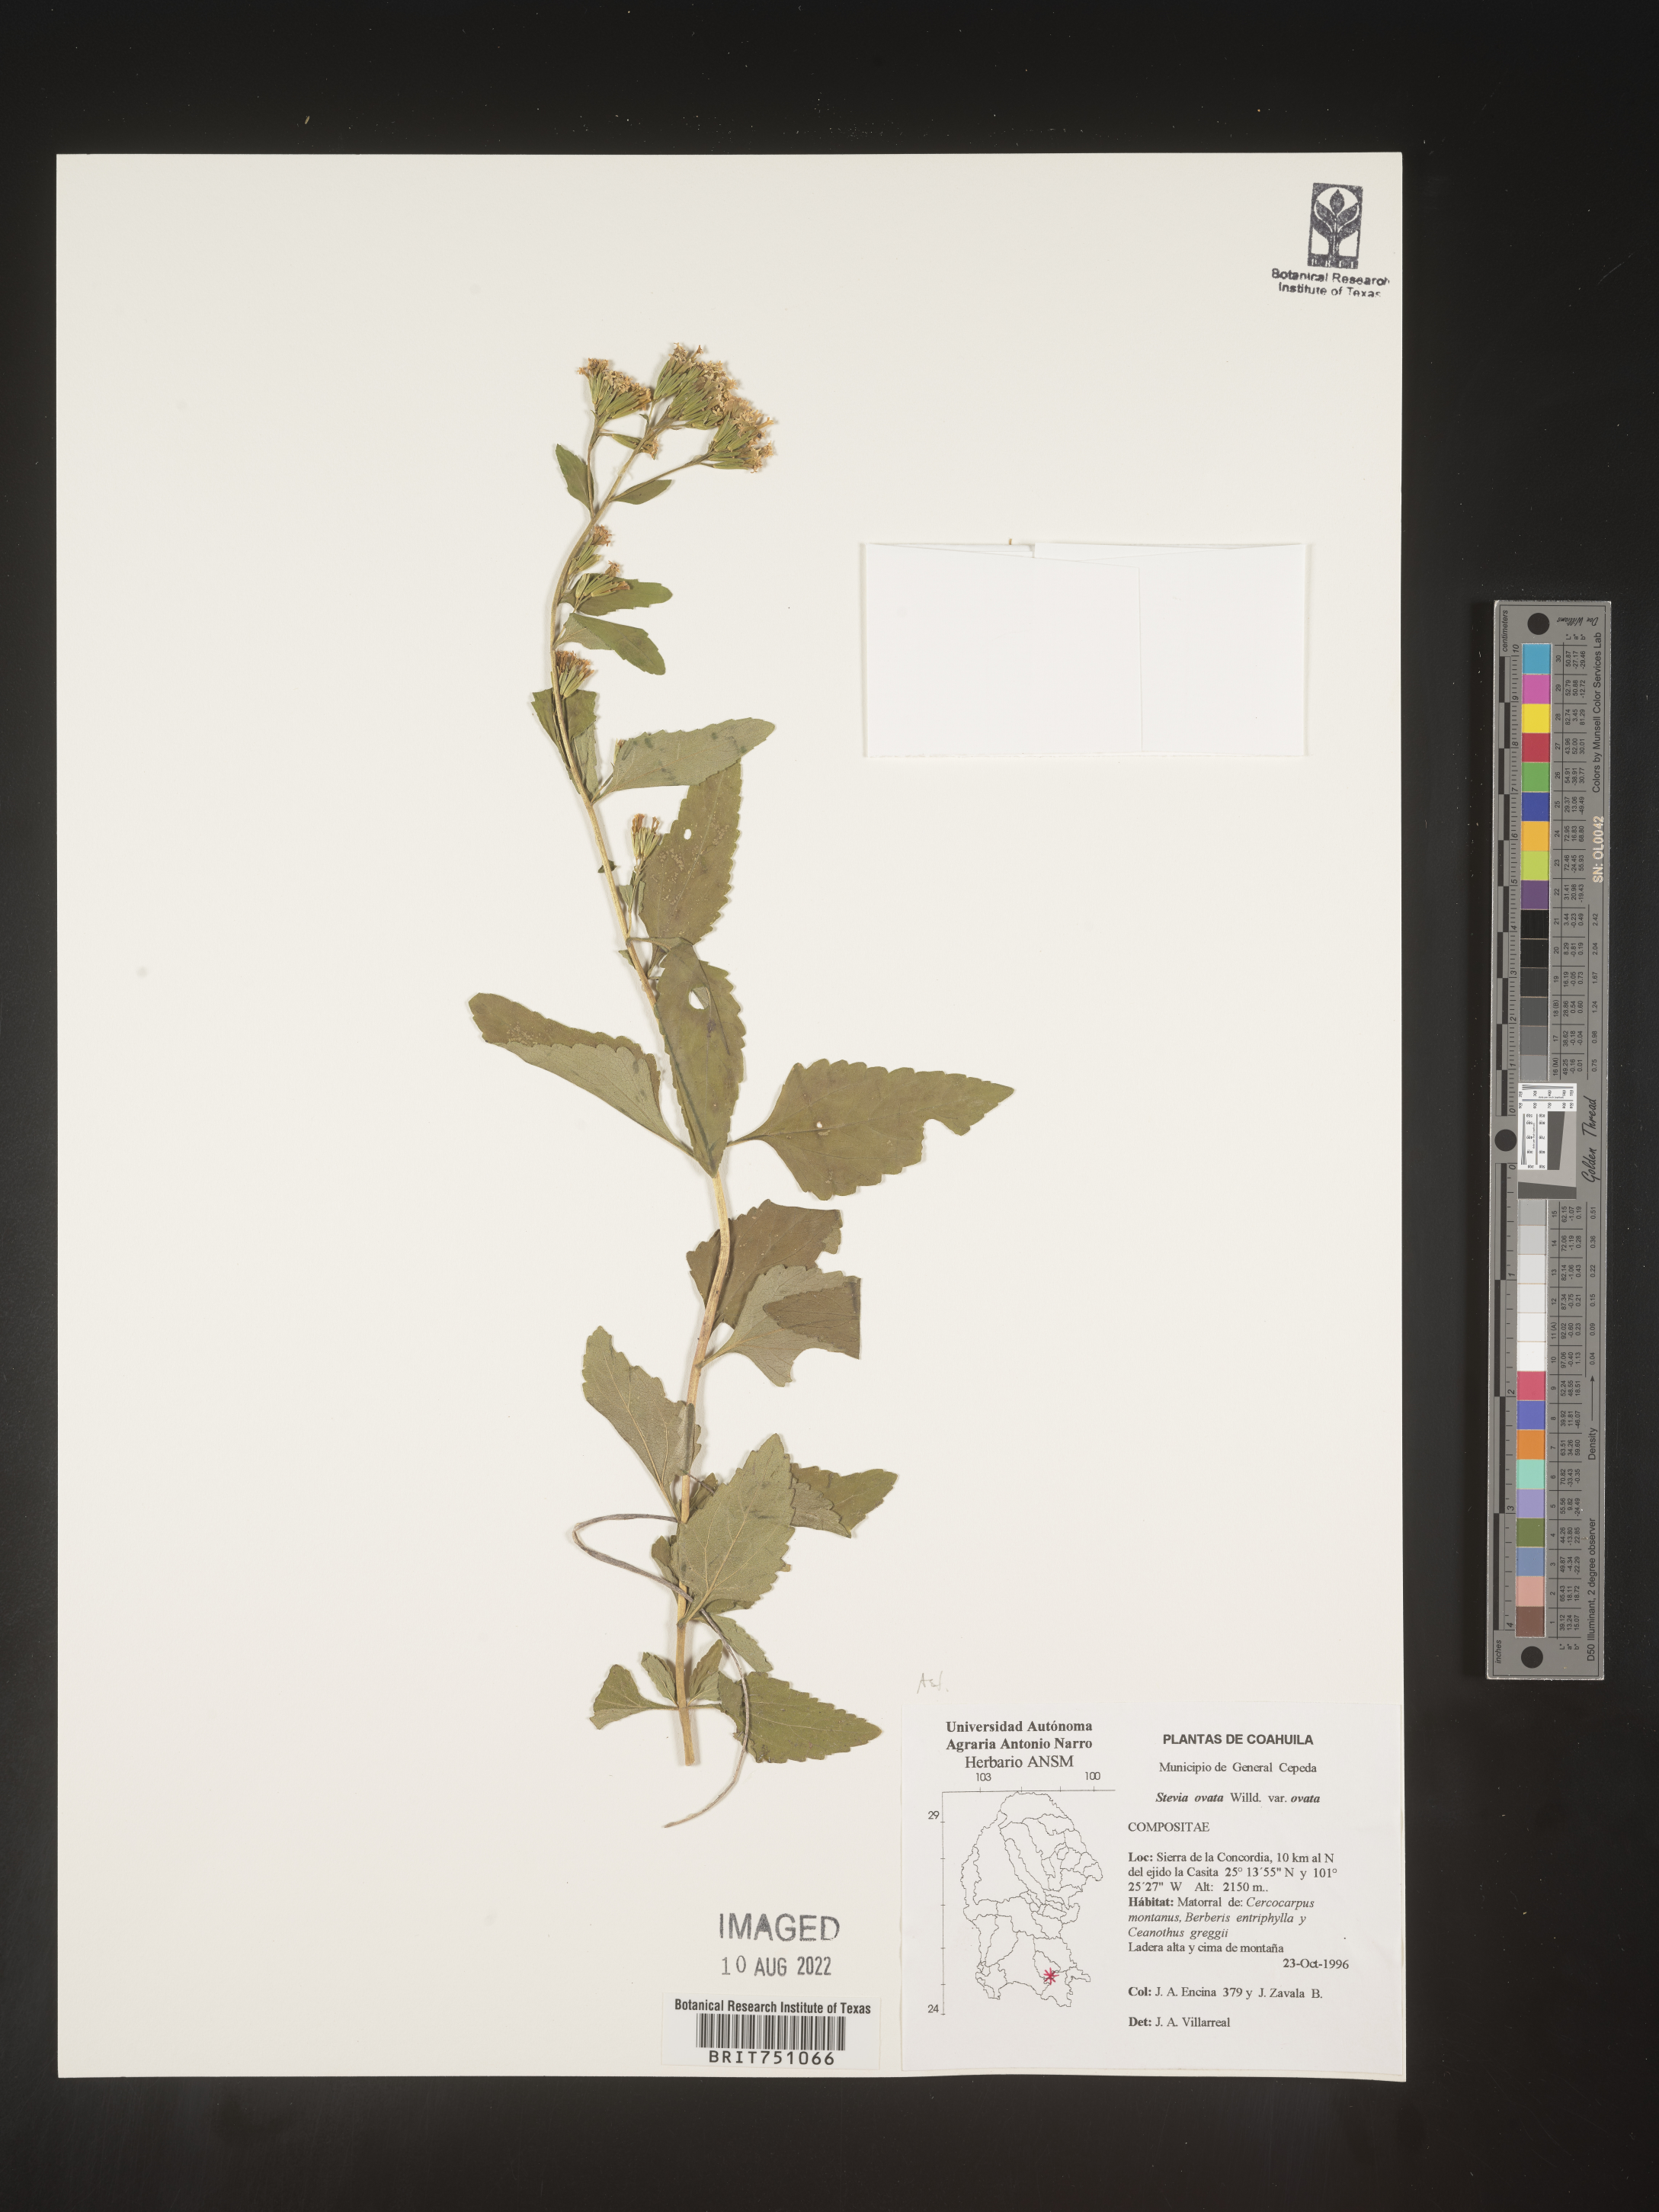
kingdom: Plantae
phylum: Tracheophyta
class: Magnoliopsida
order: Asterales
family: Asteraceae
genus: Stevia
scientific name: Stevia ovata
